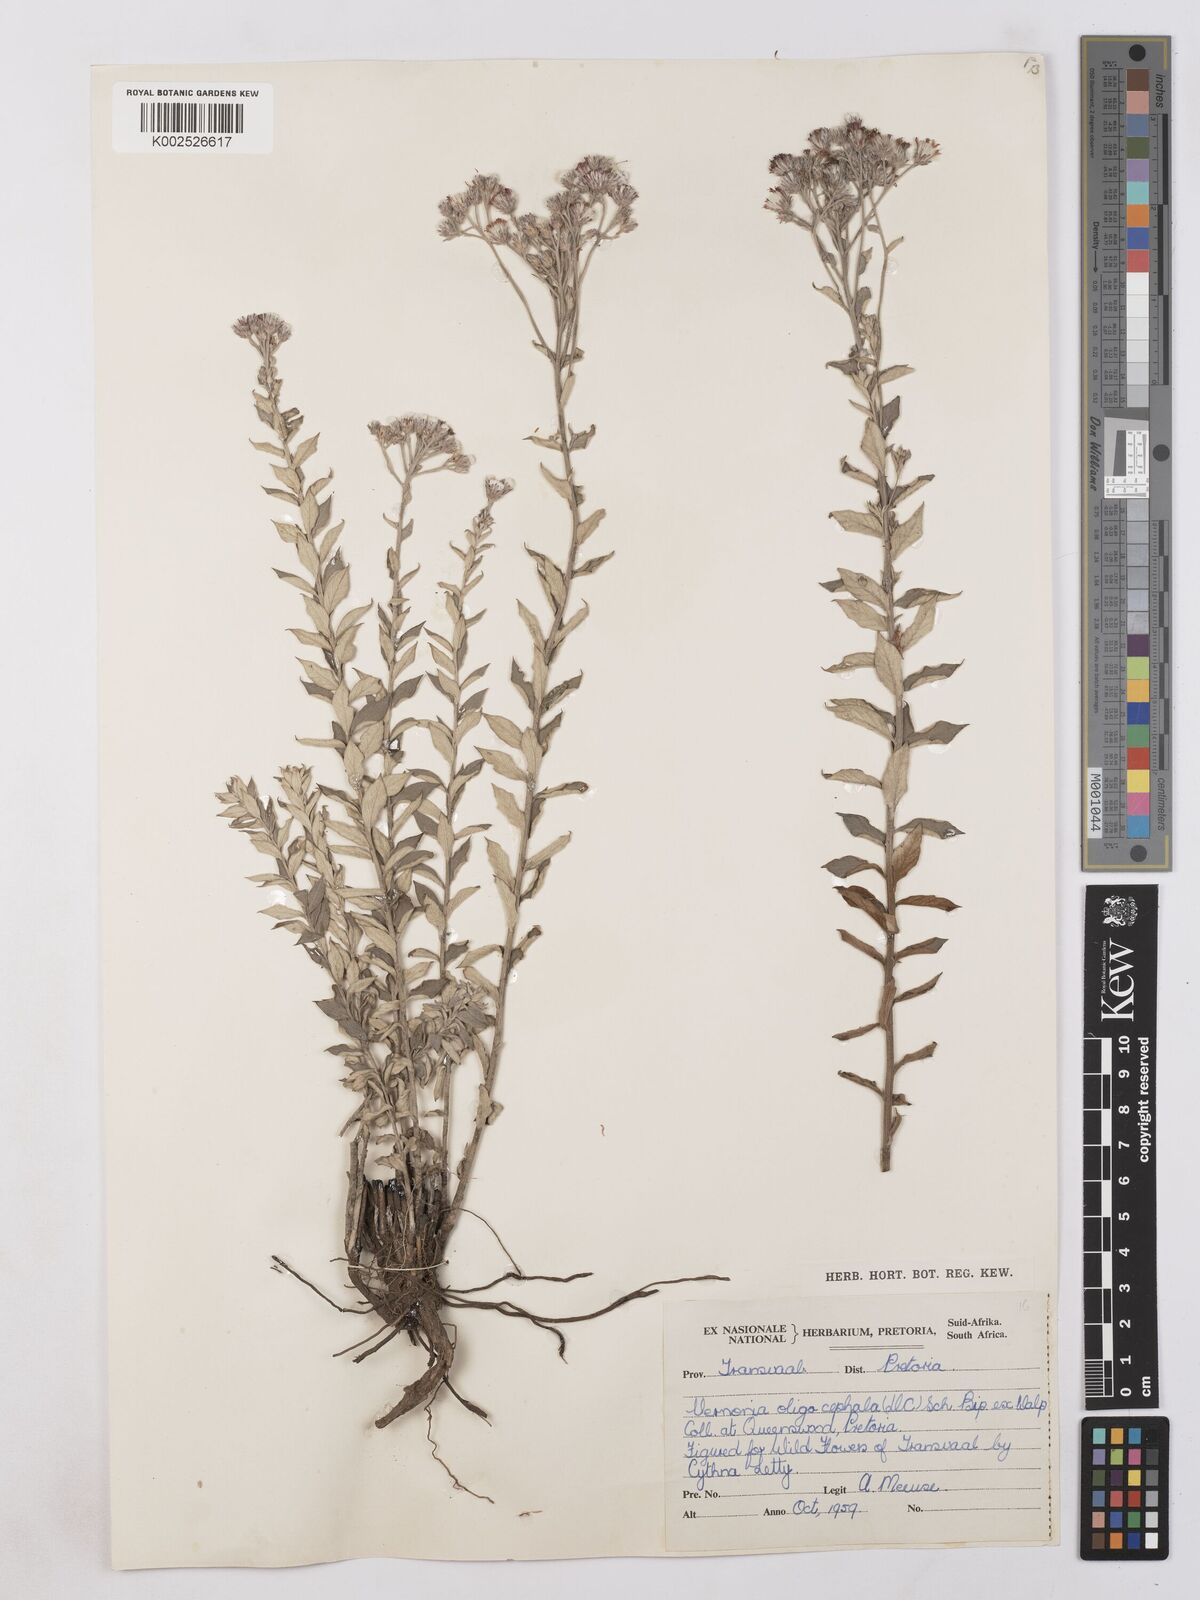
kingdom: Plantae
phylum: Tracheophyta
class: Magnoliopsida
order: Asterales
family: Asteraceae
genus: Hilliardiella
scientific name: Hilliardiella oligocephala
